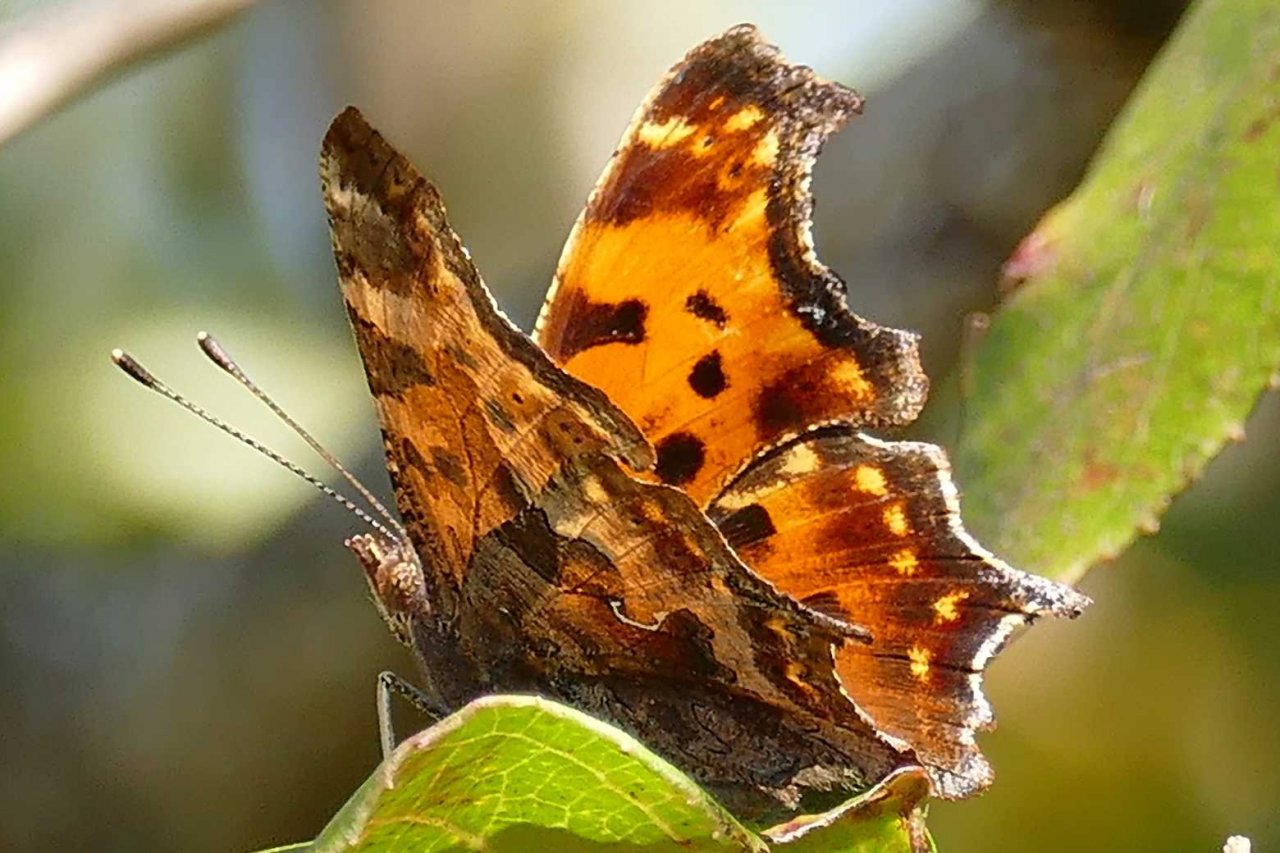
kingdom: Animalia
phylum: Arthropoda
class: Insecta
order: Lepidoptera
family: Nymphalidae
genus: Polygonia
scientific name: Polygonia comma
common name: Eastern Comma
